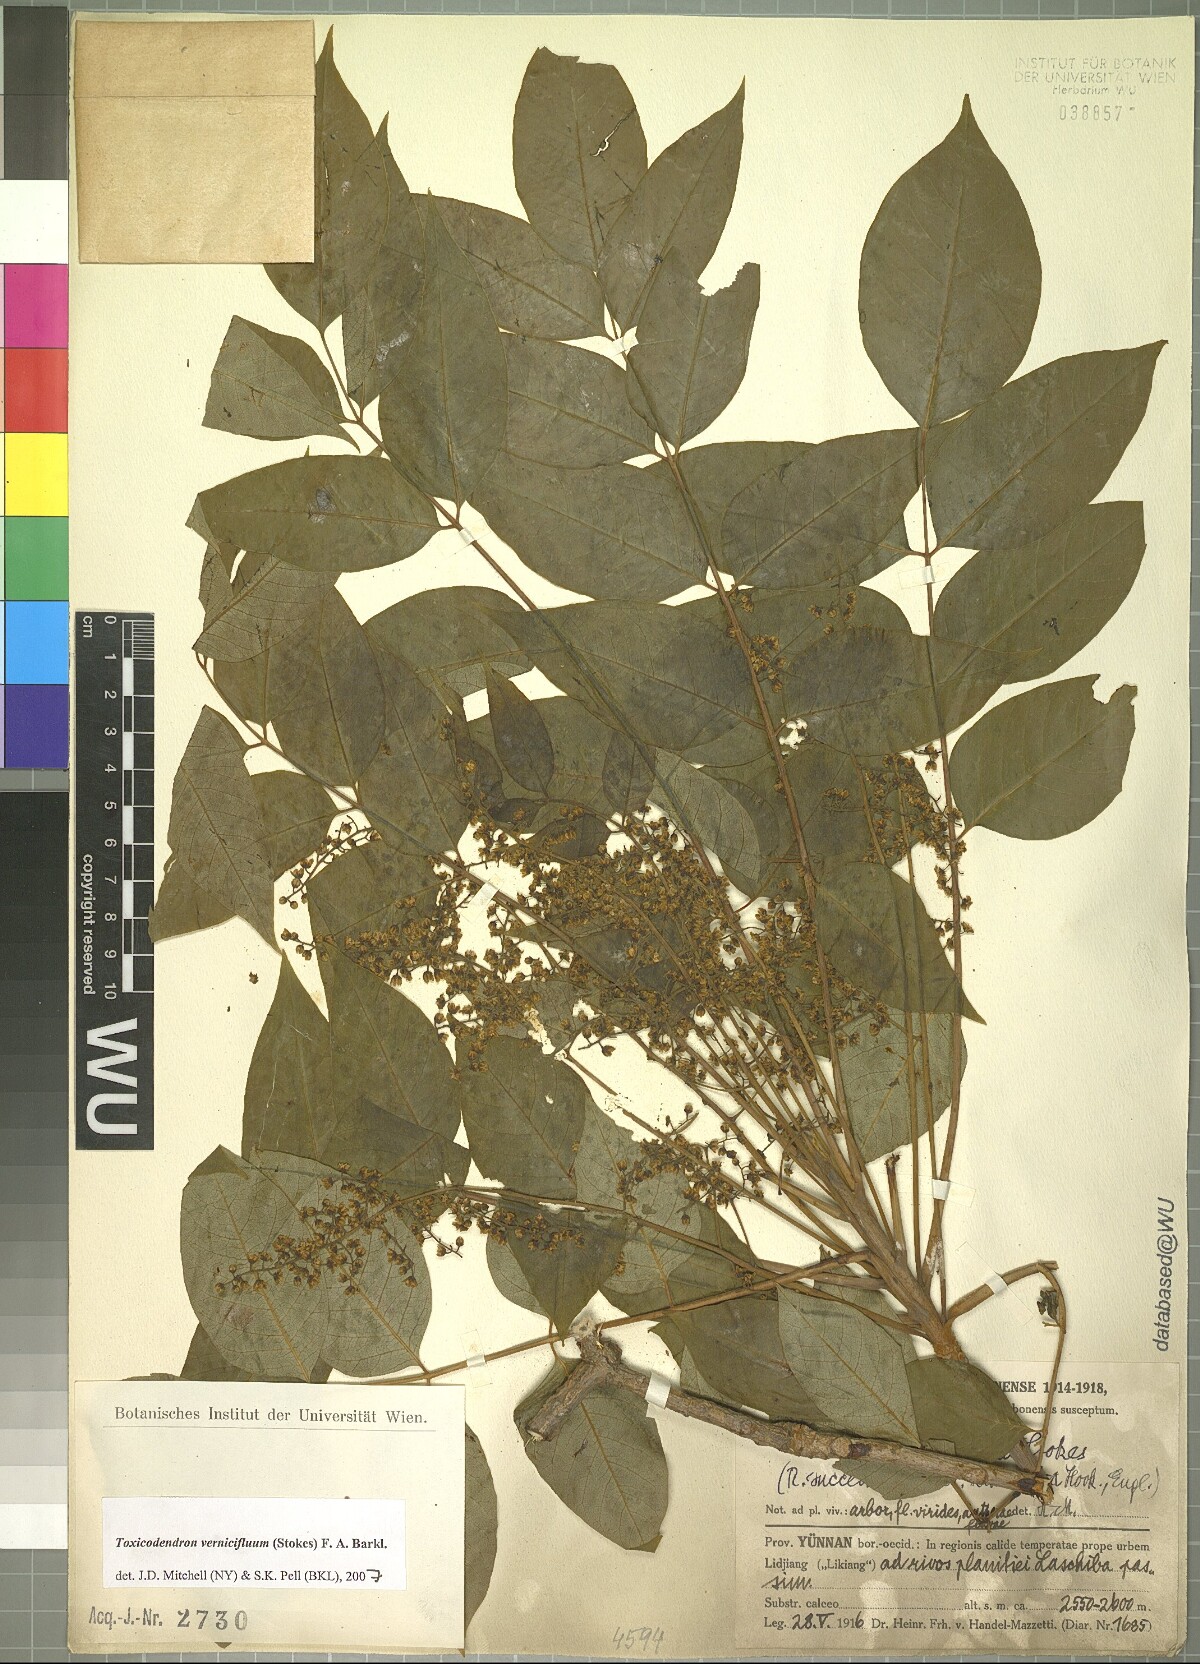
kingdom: Plantae
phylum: Tracheophyta
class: Magnoliopsida
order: Sapindales
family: Anacardiaceae
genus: Toxicodendron
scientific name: Toxicodendron vernicifluum
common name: Japanese lacquertree
